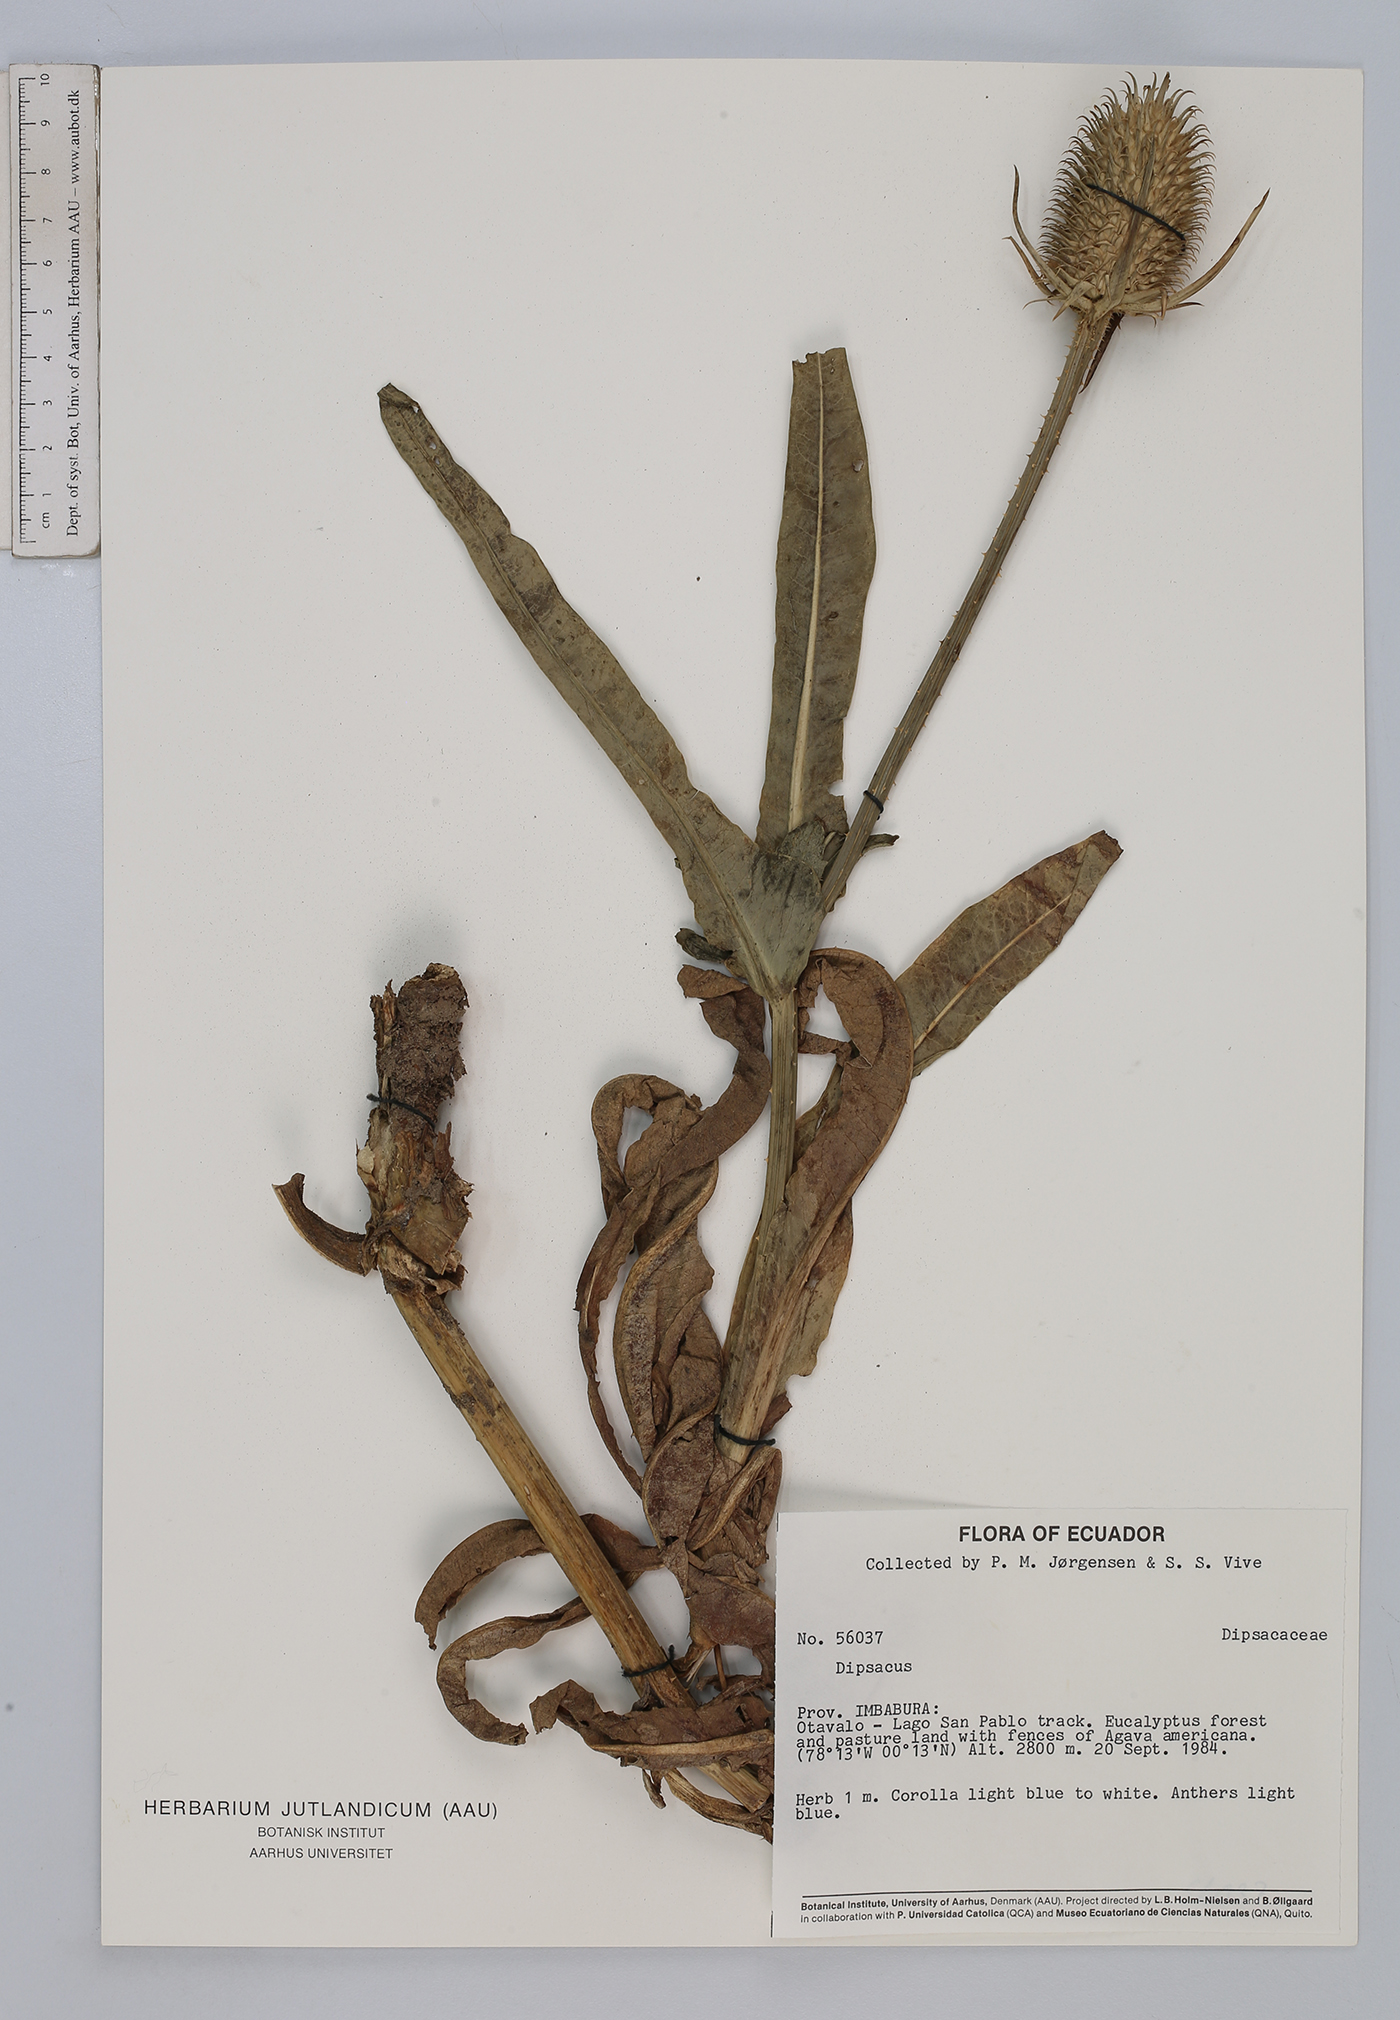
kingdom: Plantae
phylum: Tracheophyta
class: Magnoliopsida
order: Dipsacales
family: Caprifoliaceae
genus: Dipsacus
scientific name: Dipsacus sativus
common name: Fuller's teasel
